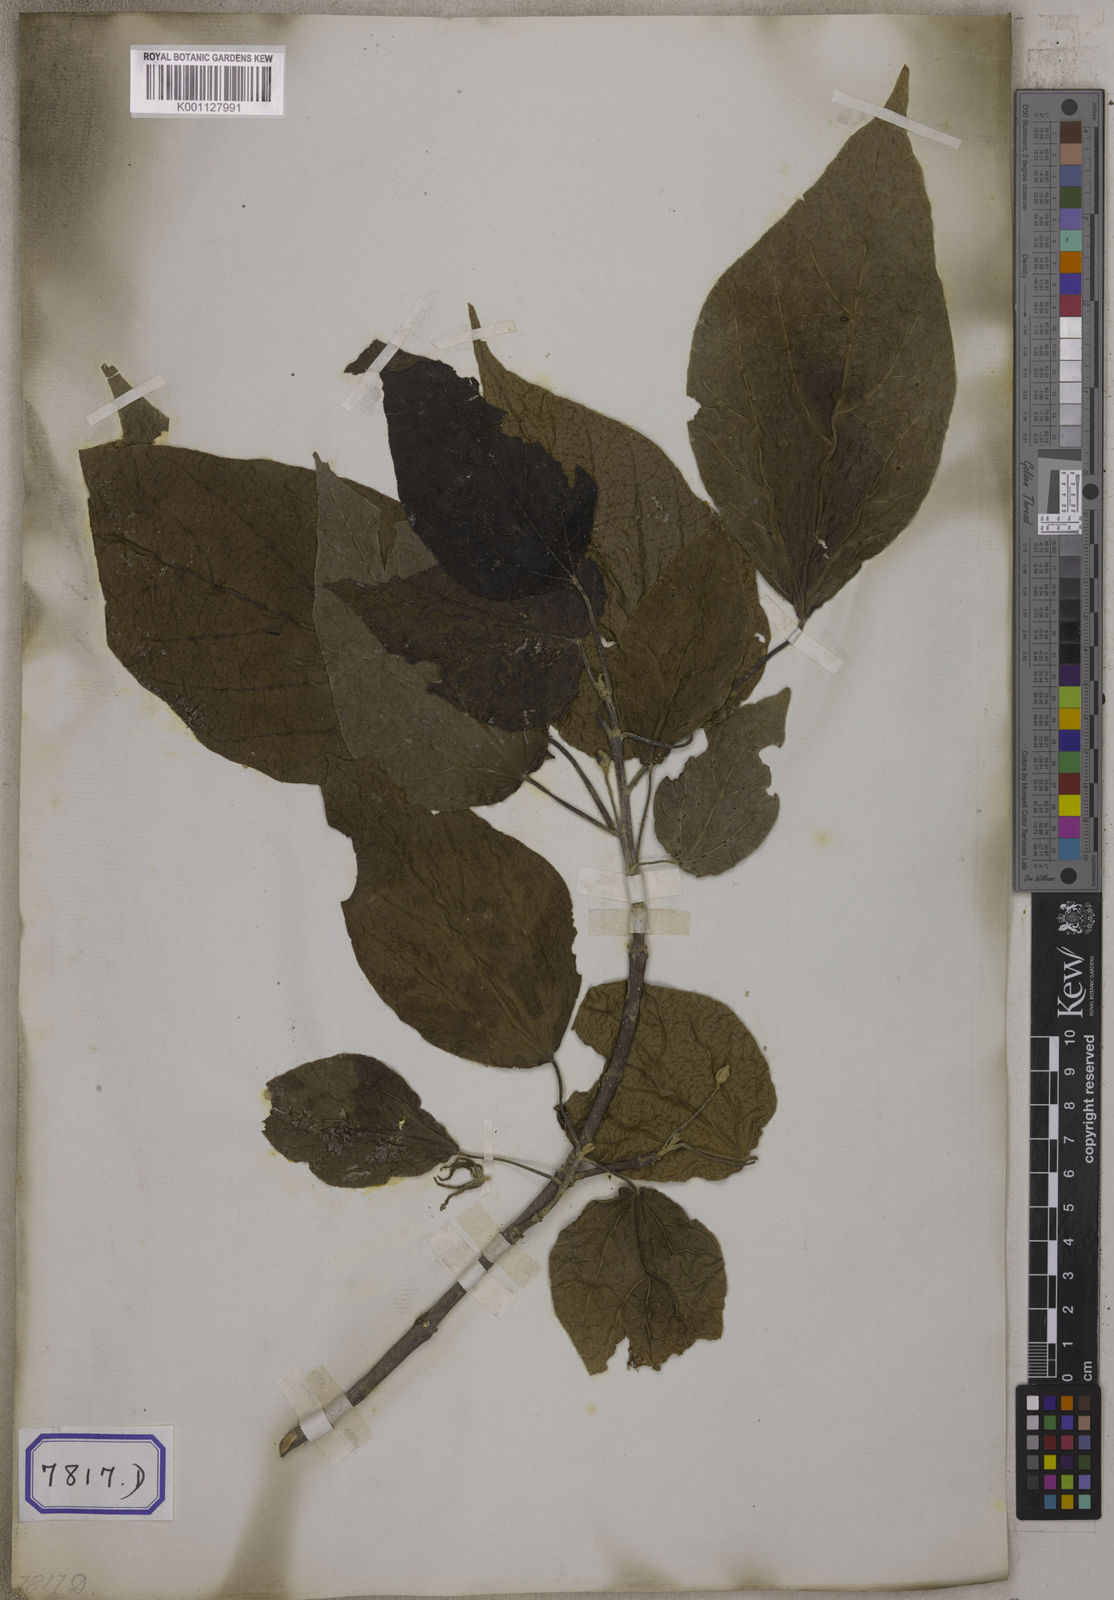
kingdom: Plantae
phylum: Tracheophyta
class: Magnoliopsida
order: Malpighiales
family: Euphorbiaceae
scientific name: Euphorbiaceae
